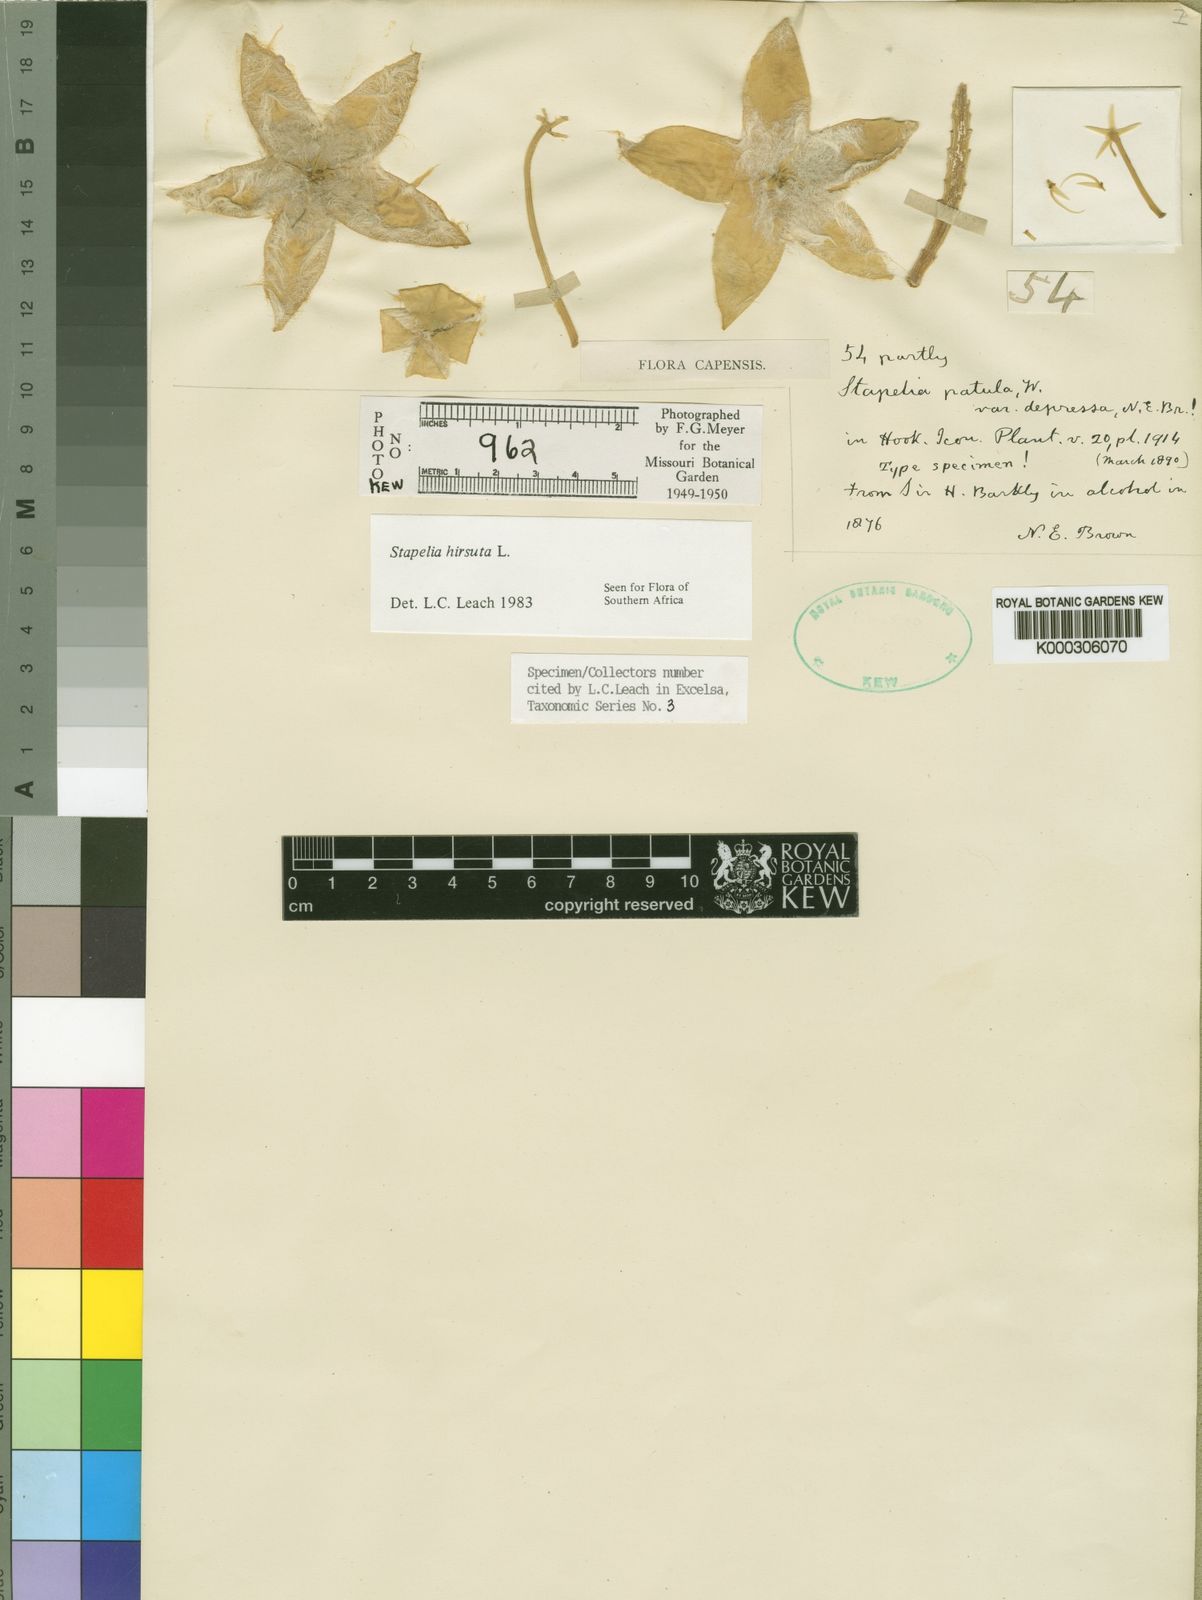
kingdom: Plantae
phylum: Tracheophyta
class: Magnoliopsida
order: Gentianales
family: Apocynaceae
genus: Ceropegia
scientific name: Ceropegia pulvinata
